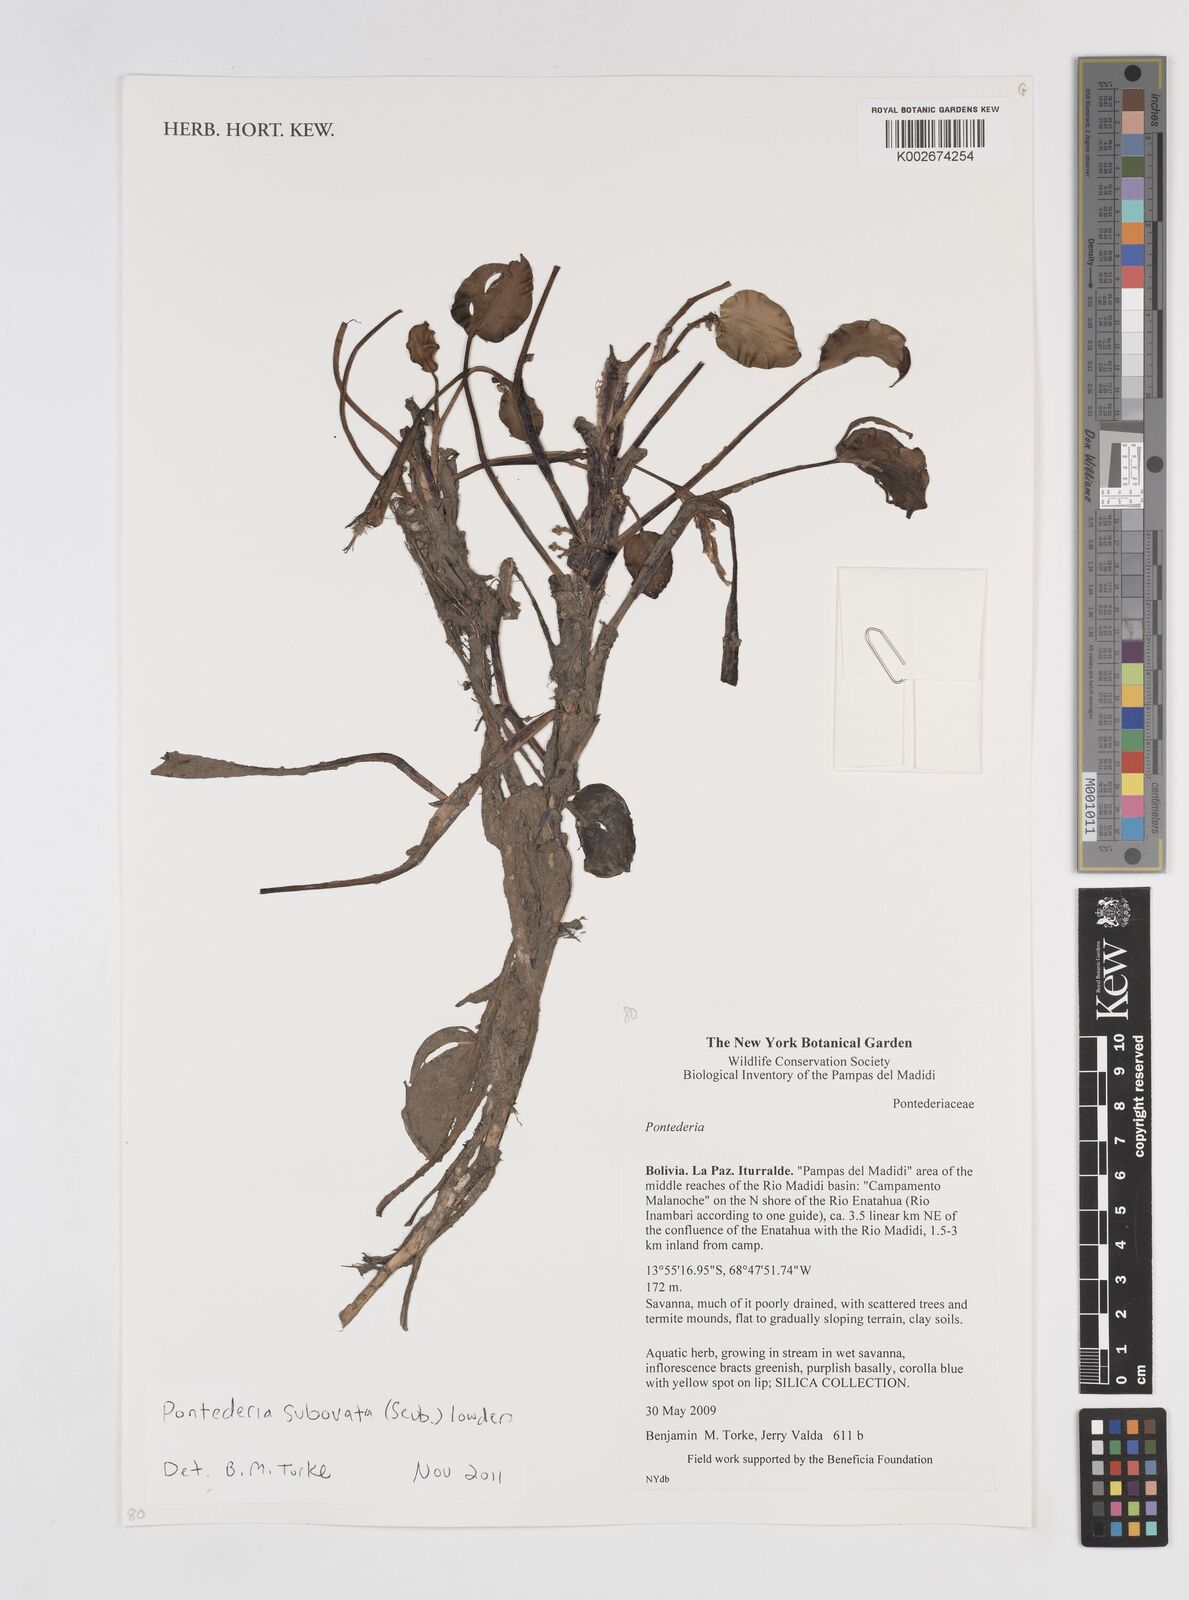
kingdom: Plantae
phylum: Tracheophyta
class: Liliopsida
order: Commelinales
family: Pontederiaceae
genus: Pontederia
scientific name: Pontederia subovata
